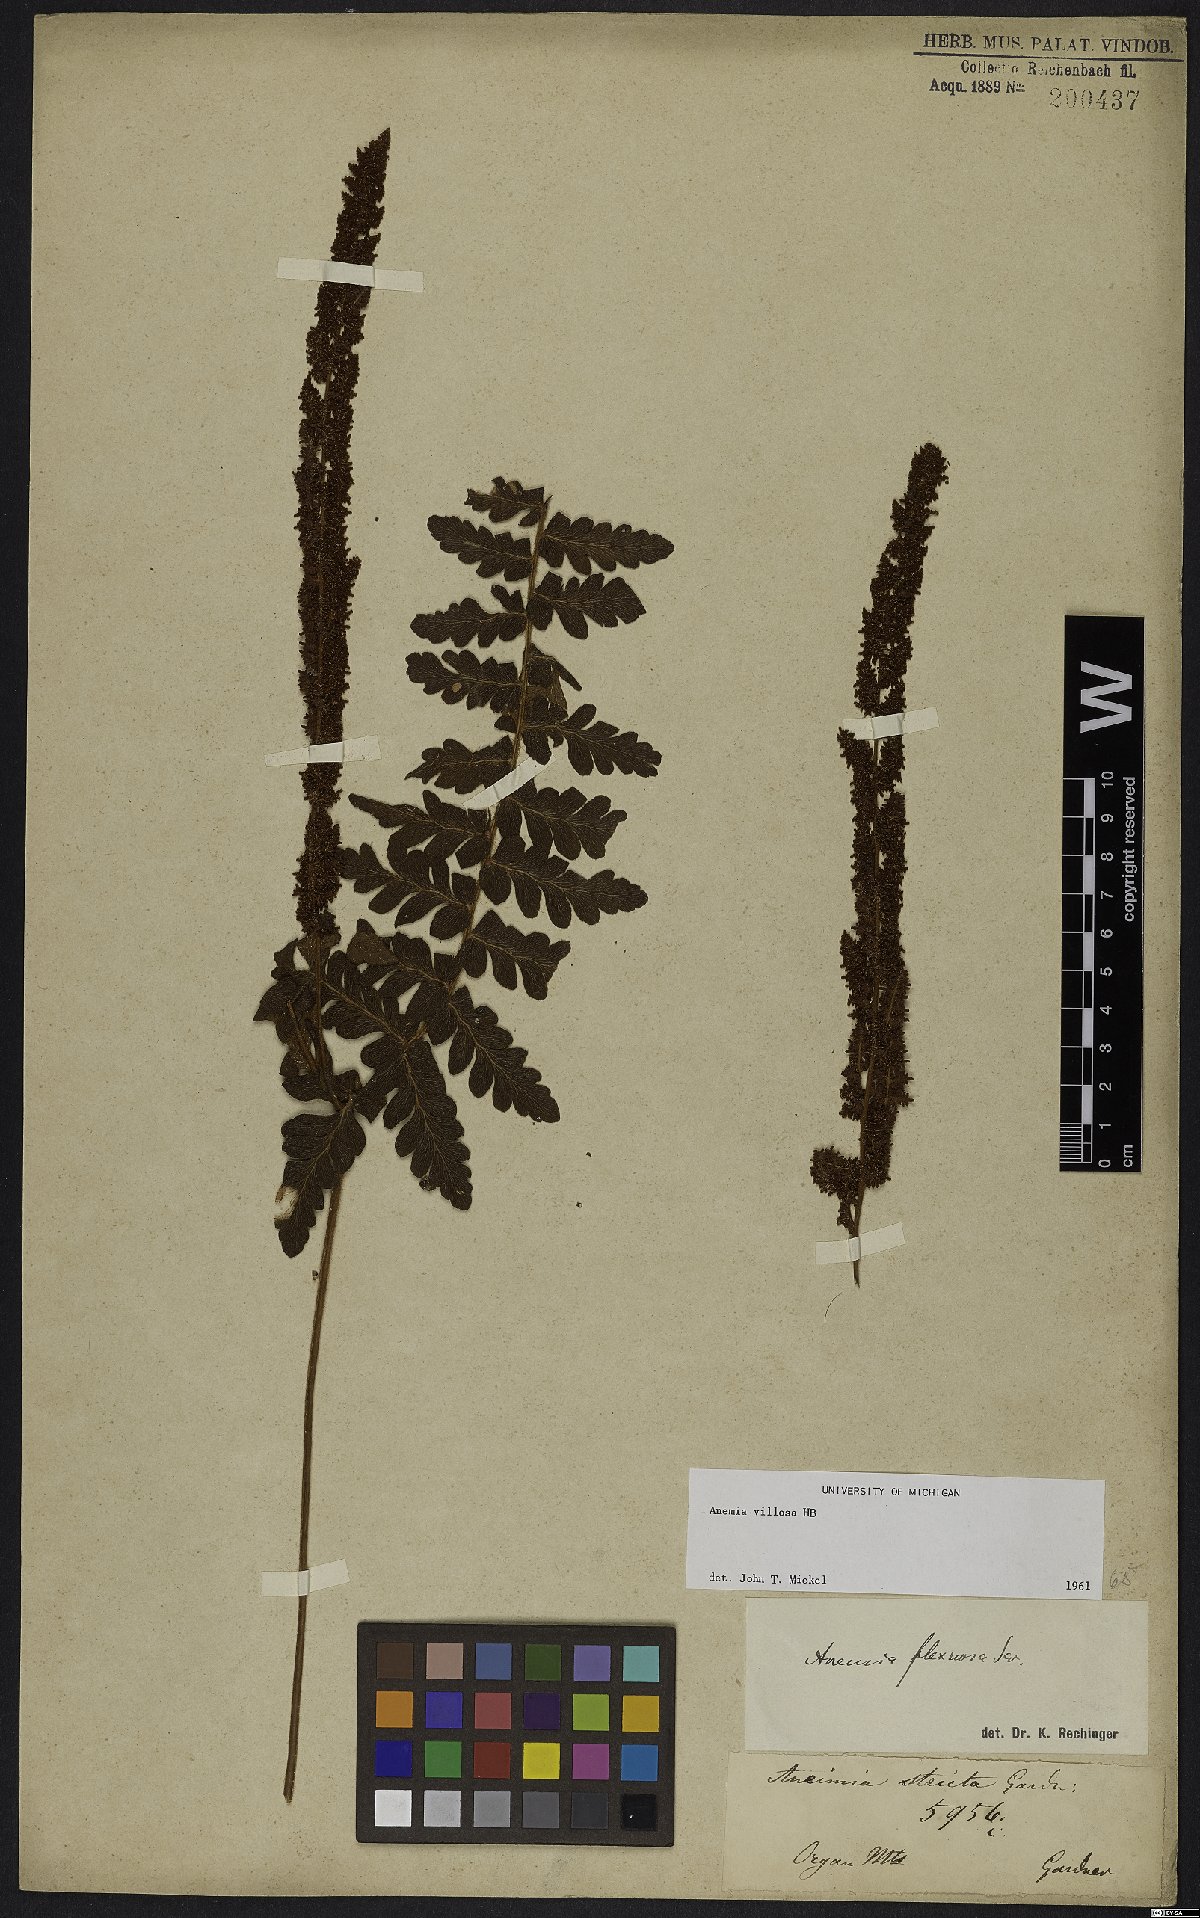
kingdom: Plantae
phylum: Tracheophyta
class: Polypodiopsida
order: Schizaeales
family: Anemiaceae
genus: Anemia
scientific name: Anemia villosa
